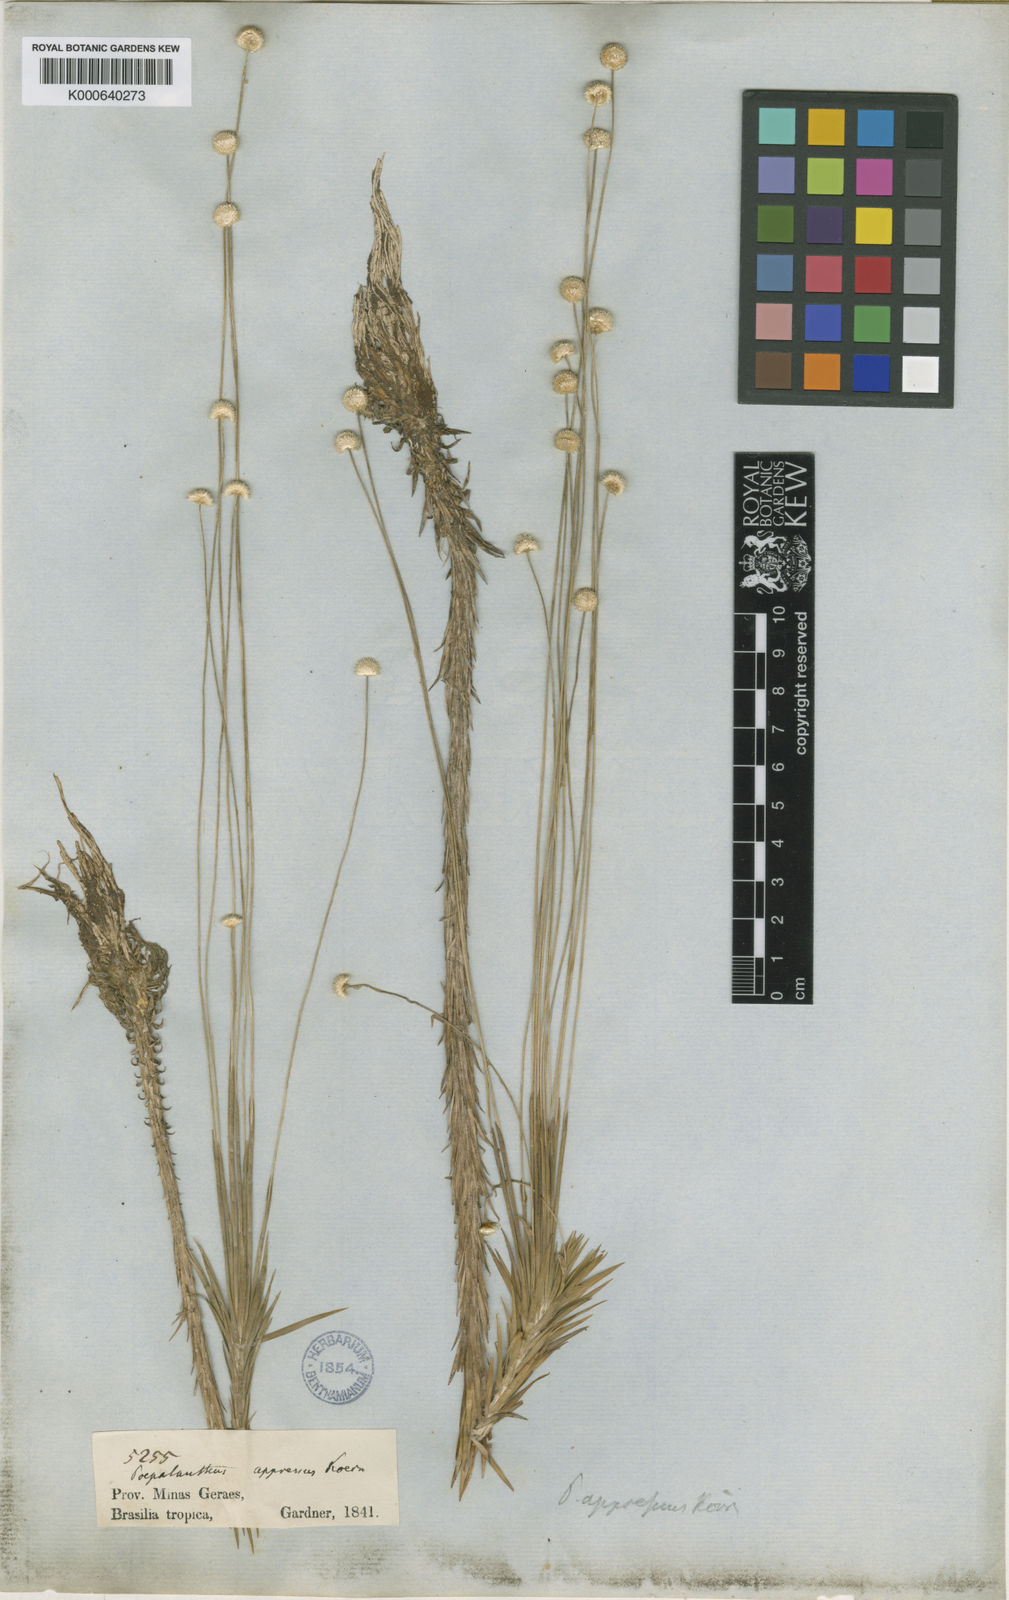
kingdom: Plantae
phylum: Tracheophyta
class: Liliopsida
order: Poales
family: Eriocaulaceae
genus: Syngonanthus
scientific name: Syngonanthus
